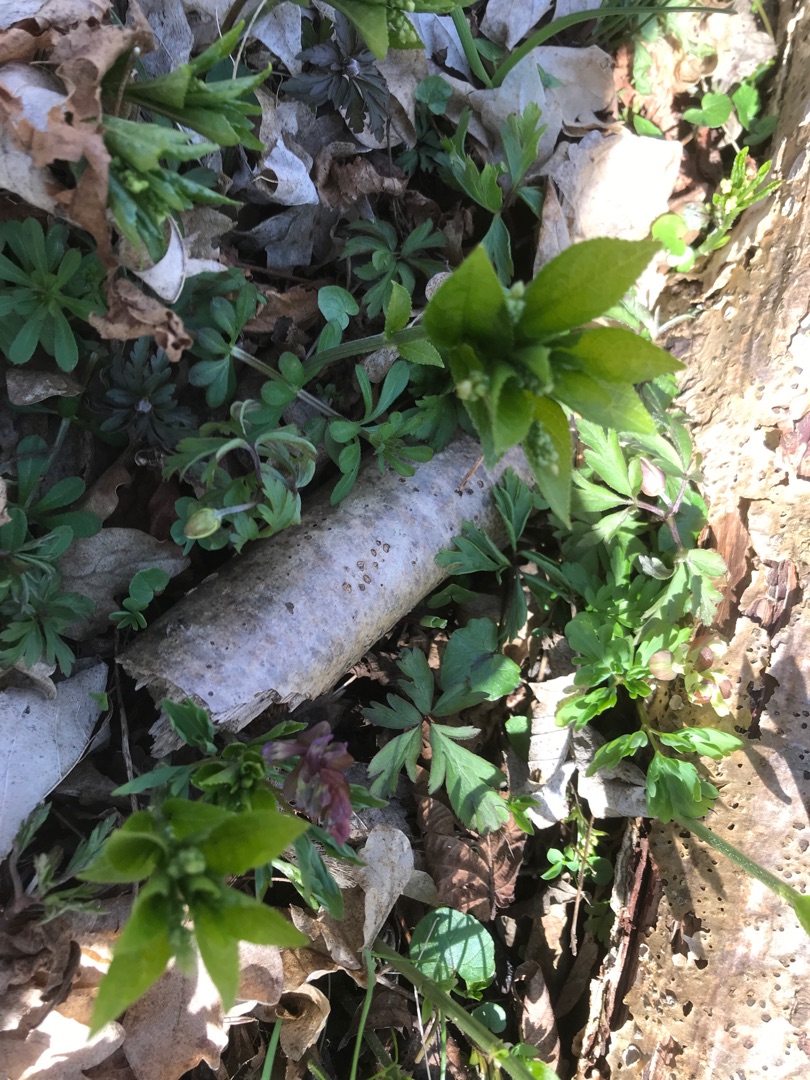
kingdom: Plantae
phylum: Tracheophyta
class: Magnoliopsida
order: Malpighiales
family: Euphorbiaceae
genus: Mercurialis
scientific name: Mercurialis perennis
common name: Almindelig bingelurt
